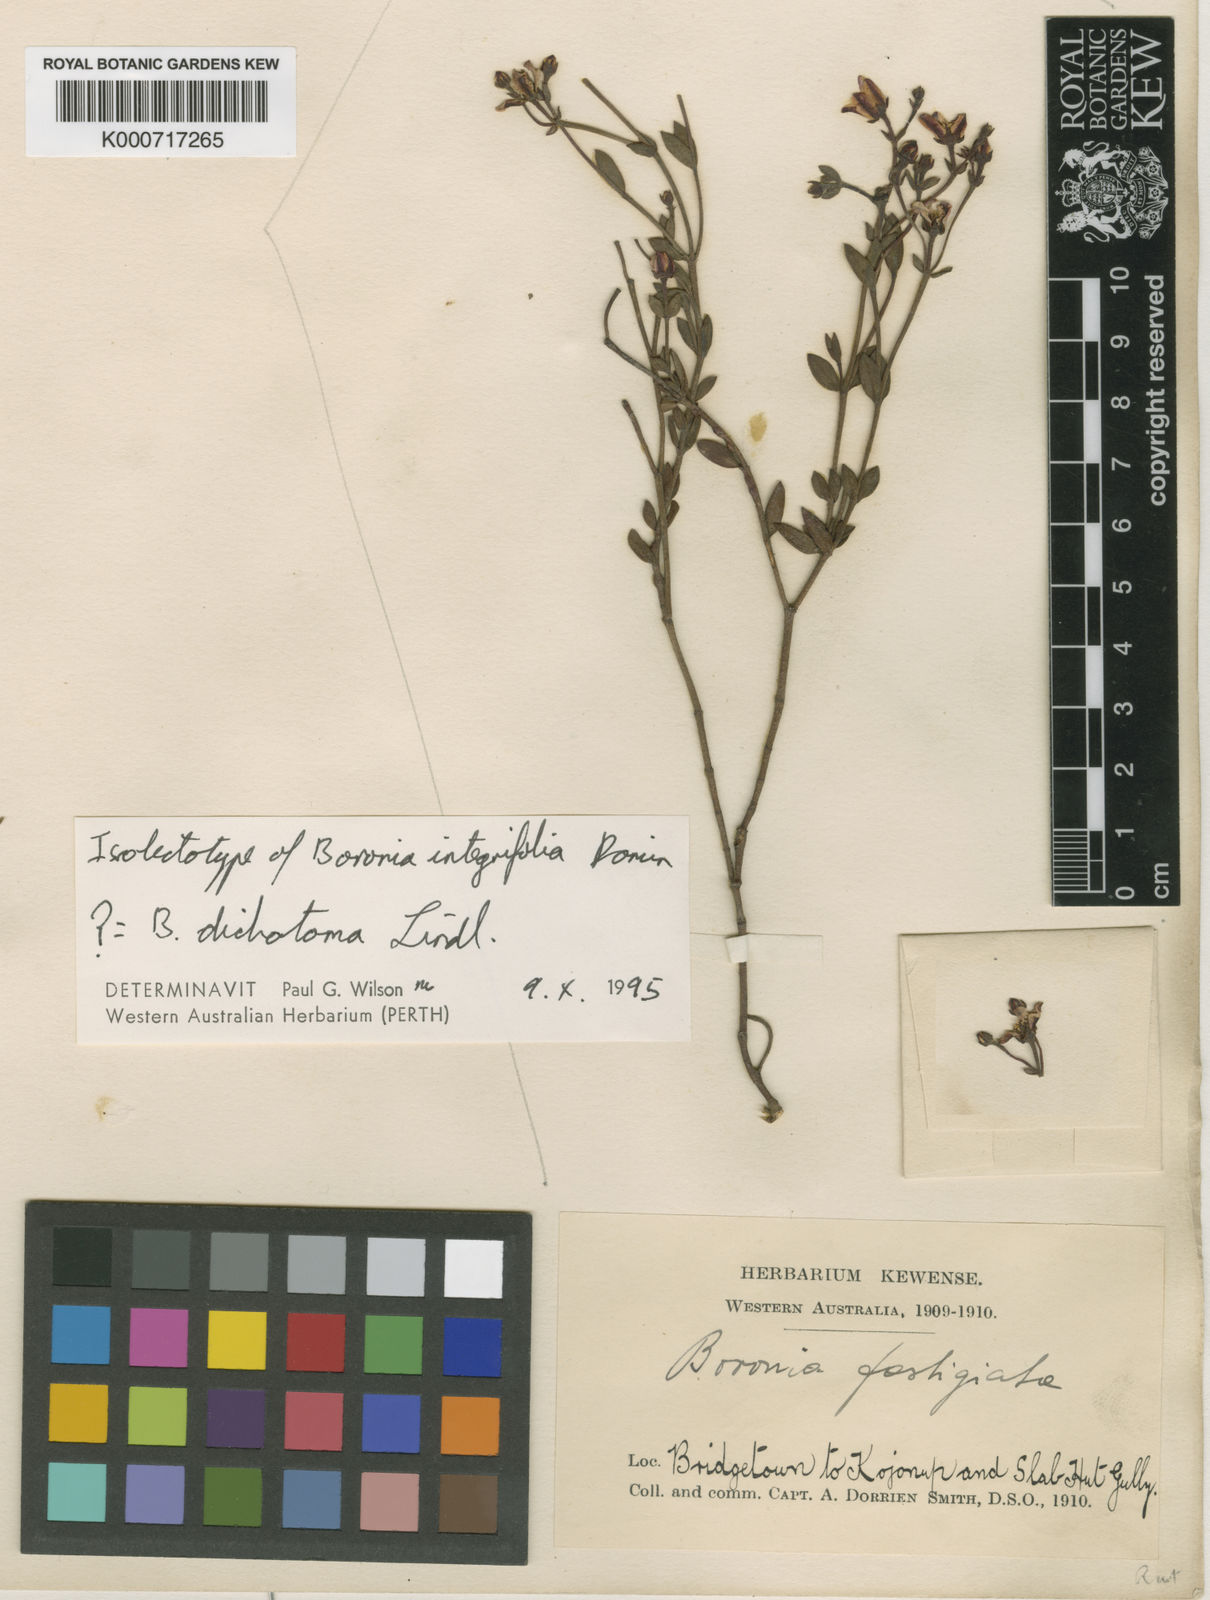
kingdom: Plantae
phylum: Tracheophyta
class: Magnoliopsida
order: Sapindales
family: Rutaceae
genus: Boronia
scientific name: Boronia fastigiata
